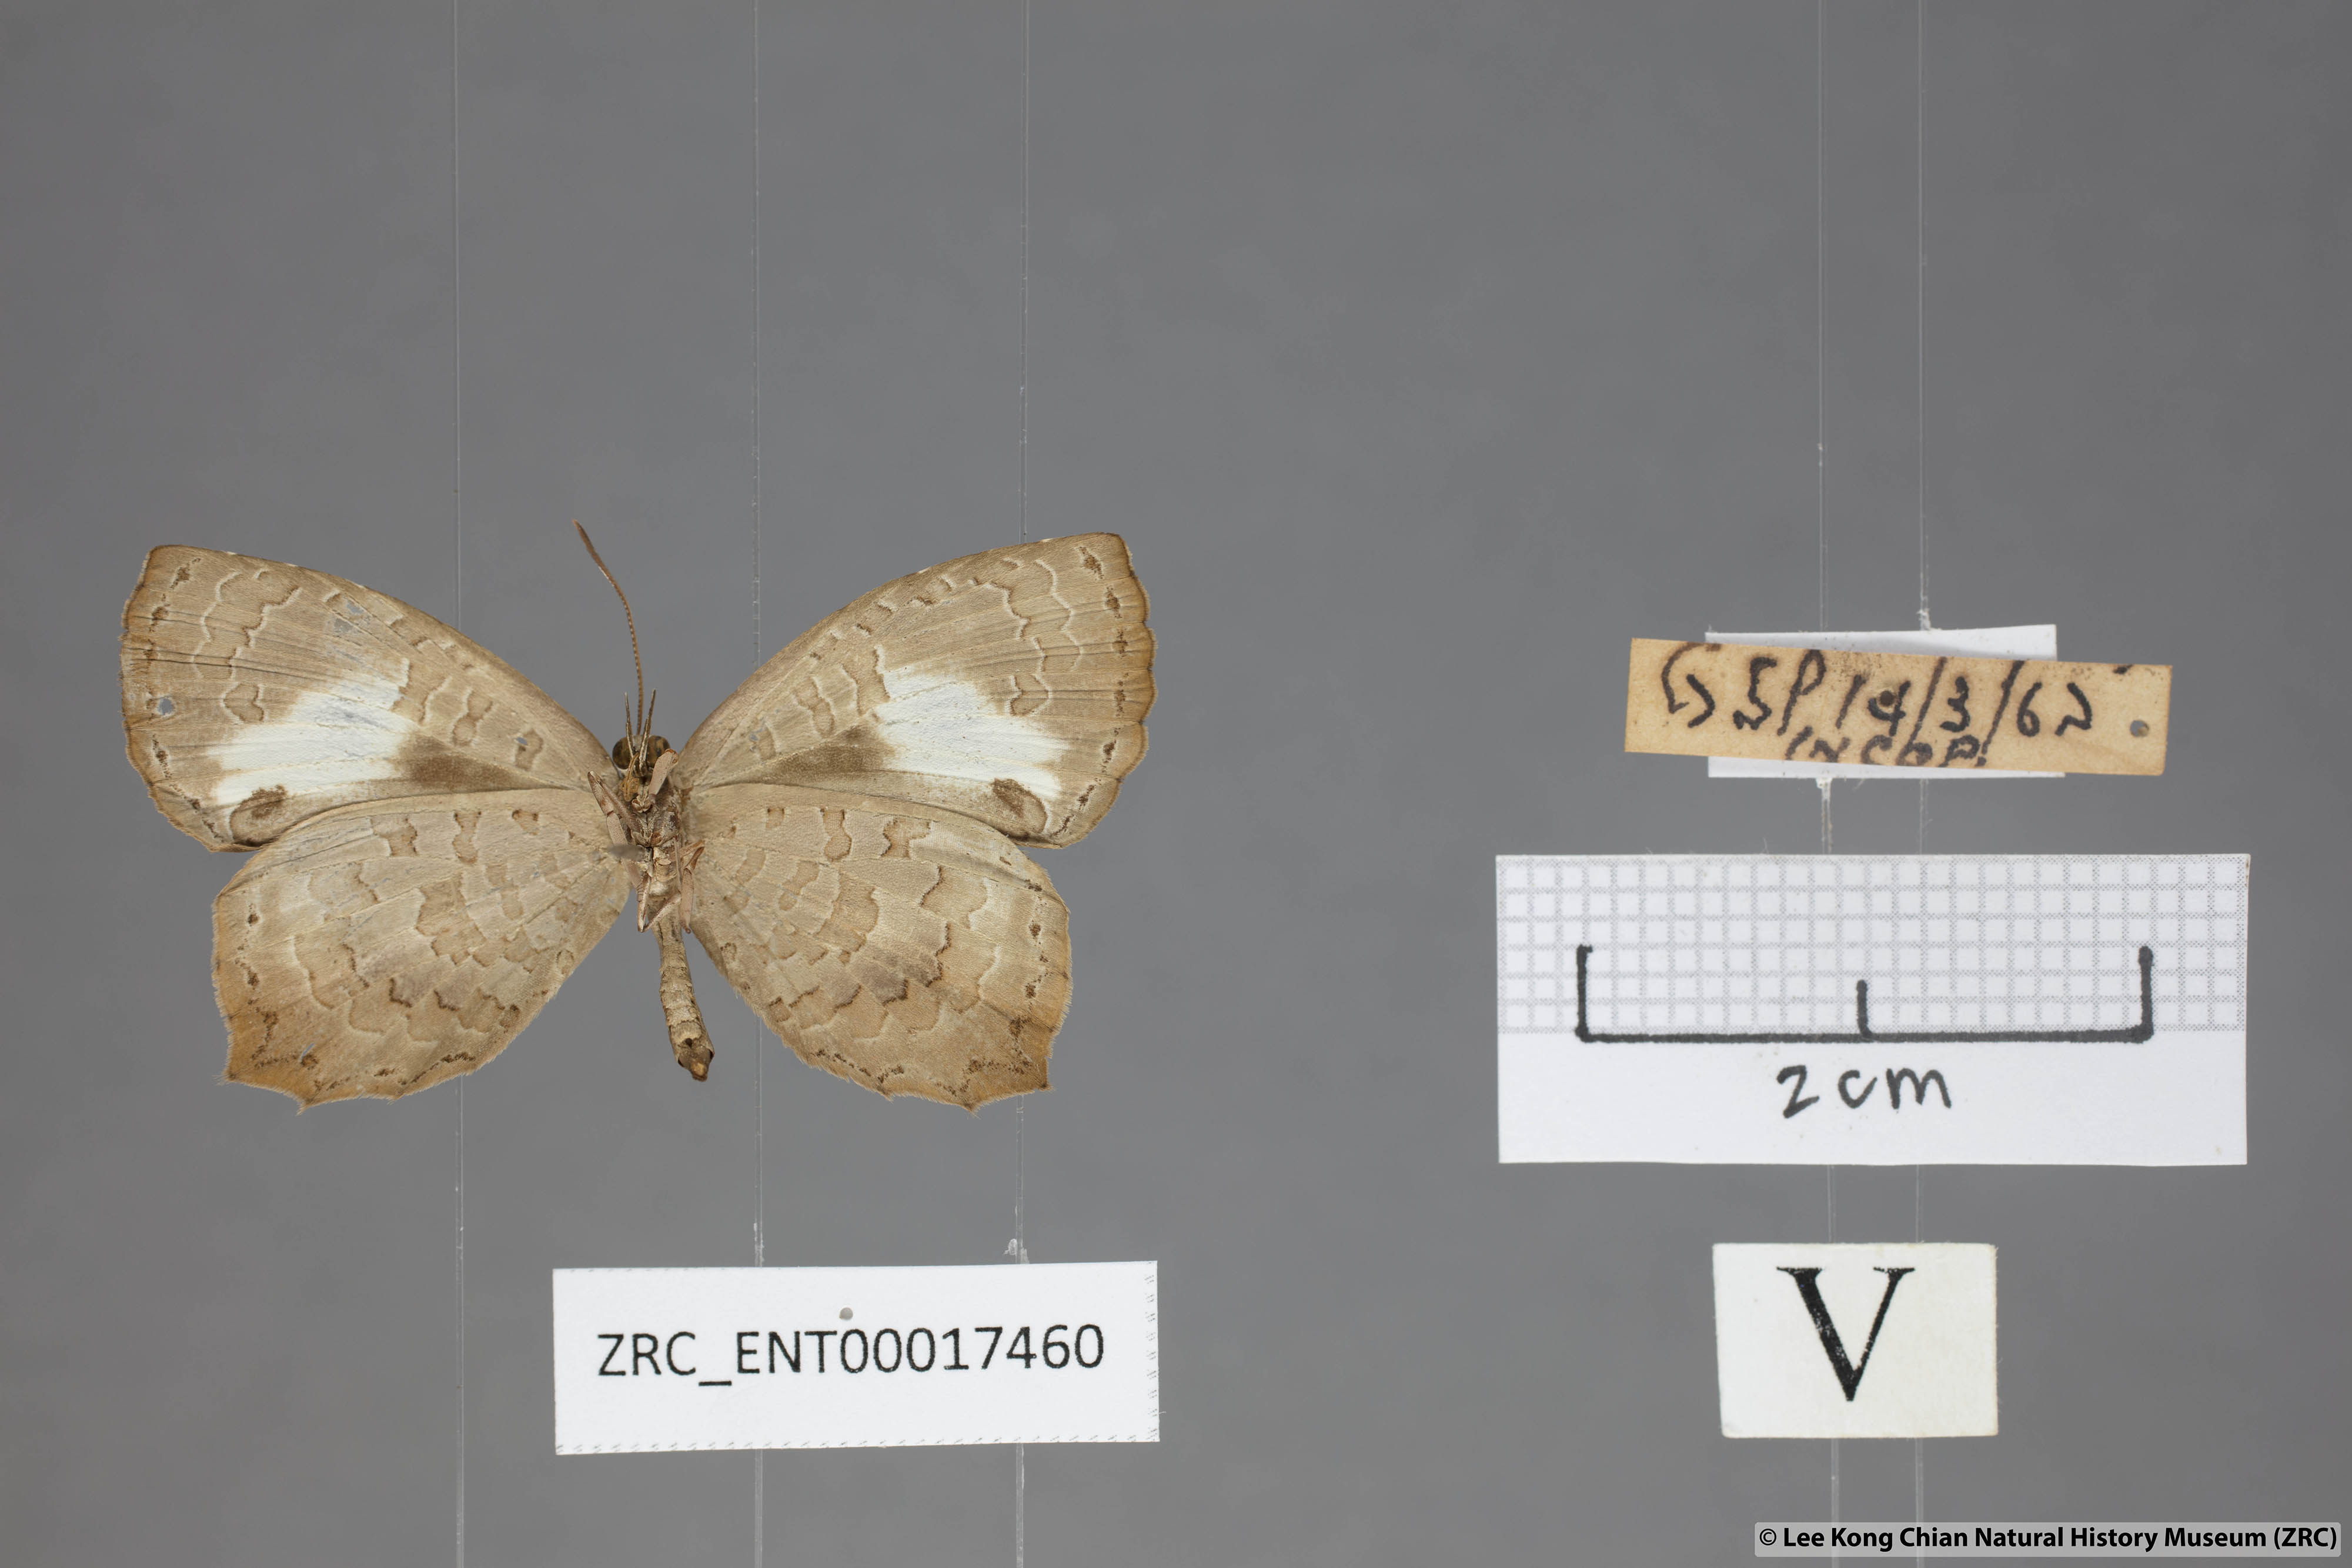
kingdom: Animalia
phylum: Arthropoda
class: Insecta
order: Lepidoptera
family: Lycaenidae
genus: Miletus
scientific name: Miletus gopara
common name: Round-banded brownie
